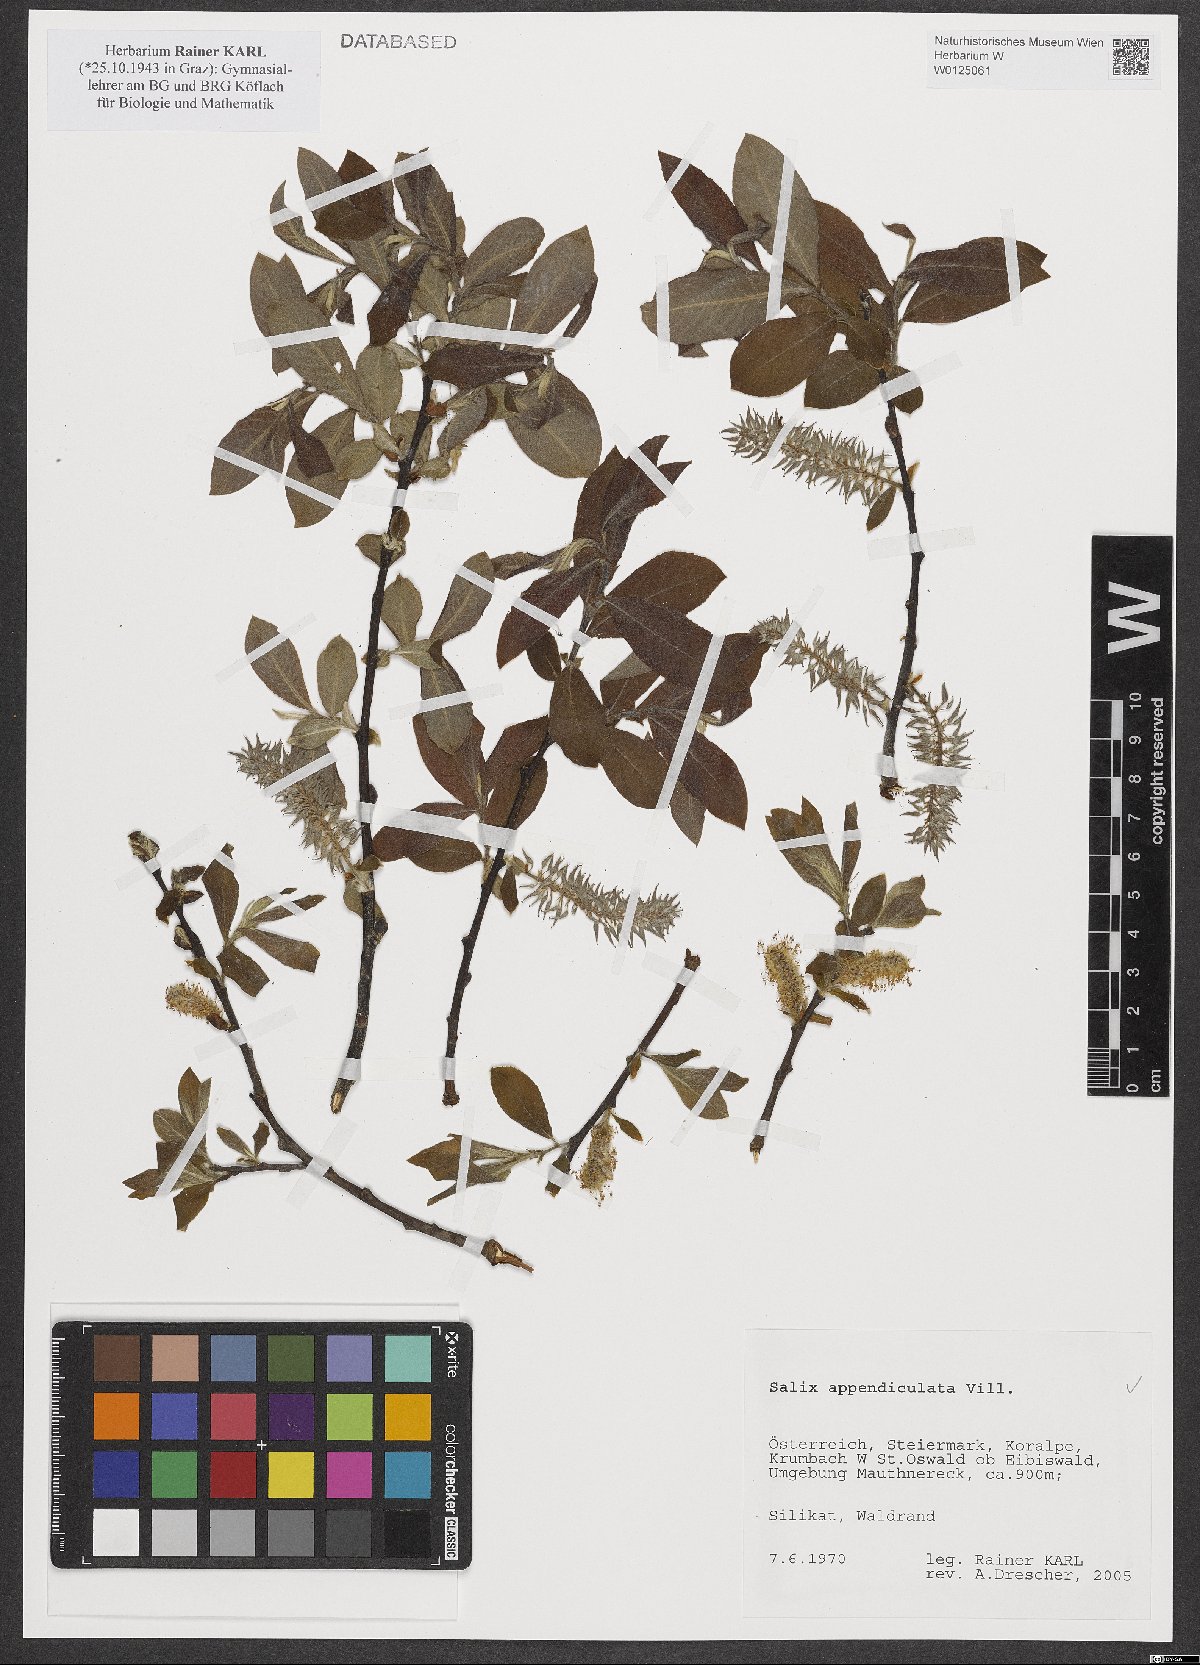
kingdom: Plantae
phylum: Tracheophyta
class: Magnoliopsida
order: Malpighiales
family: Salicaceae
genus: Salix
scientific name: Salix appendiculata
